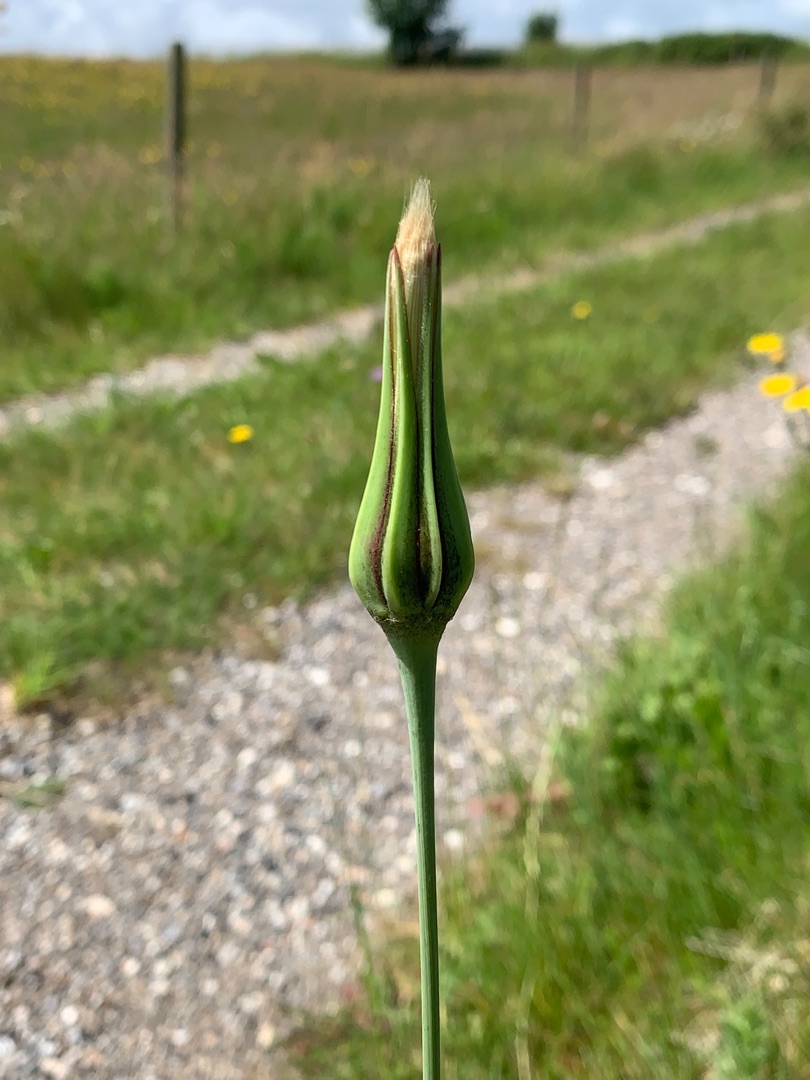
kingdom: Plantae
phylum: Tracheophyta
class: Magnoliopsida
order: Asterales
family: Asteraceae
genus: Tragopogon
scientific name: Tragopogon pratensis
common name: Gedeskæg
